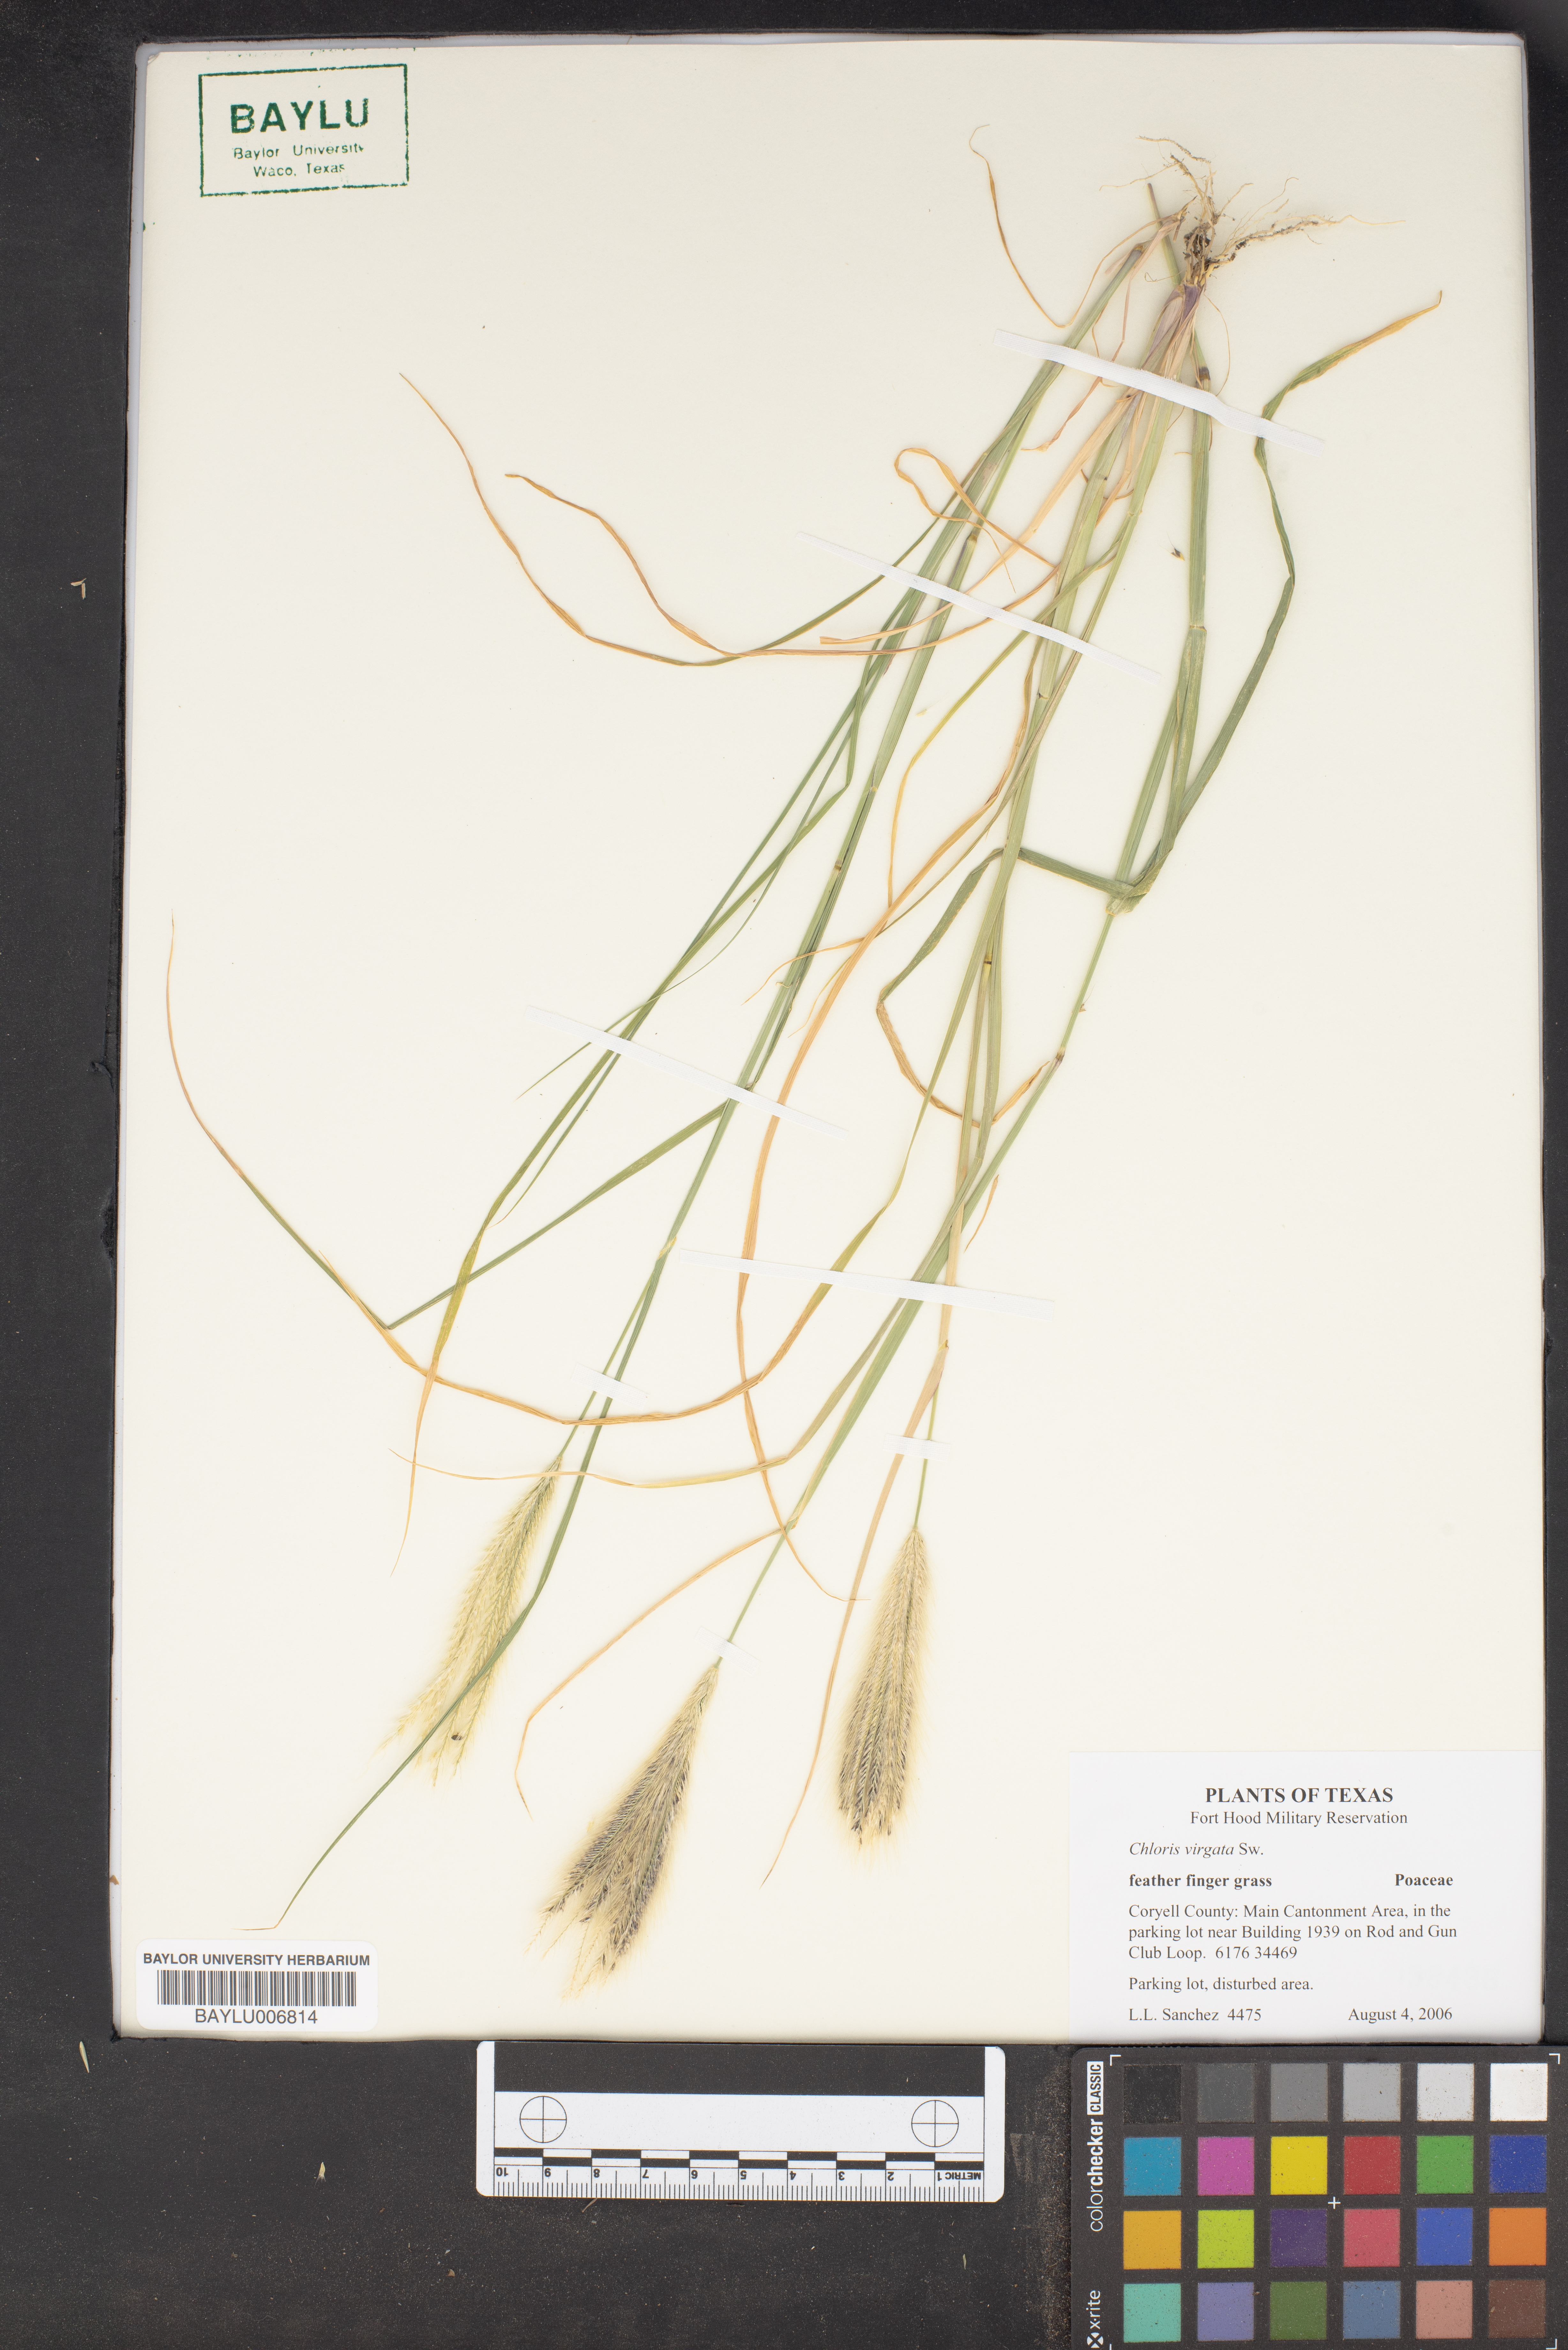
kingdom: Plantae
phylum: Tracheophyta
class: Liliopsida
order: Poales
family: Poaceae
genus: Chloris
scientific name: Chloris virgata
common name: Feathery rhodes-grass
